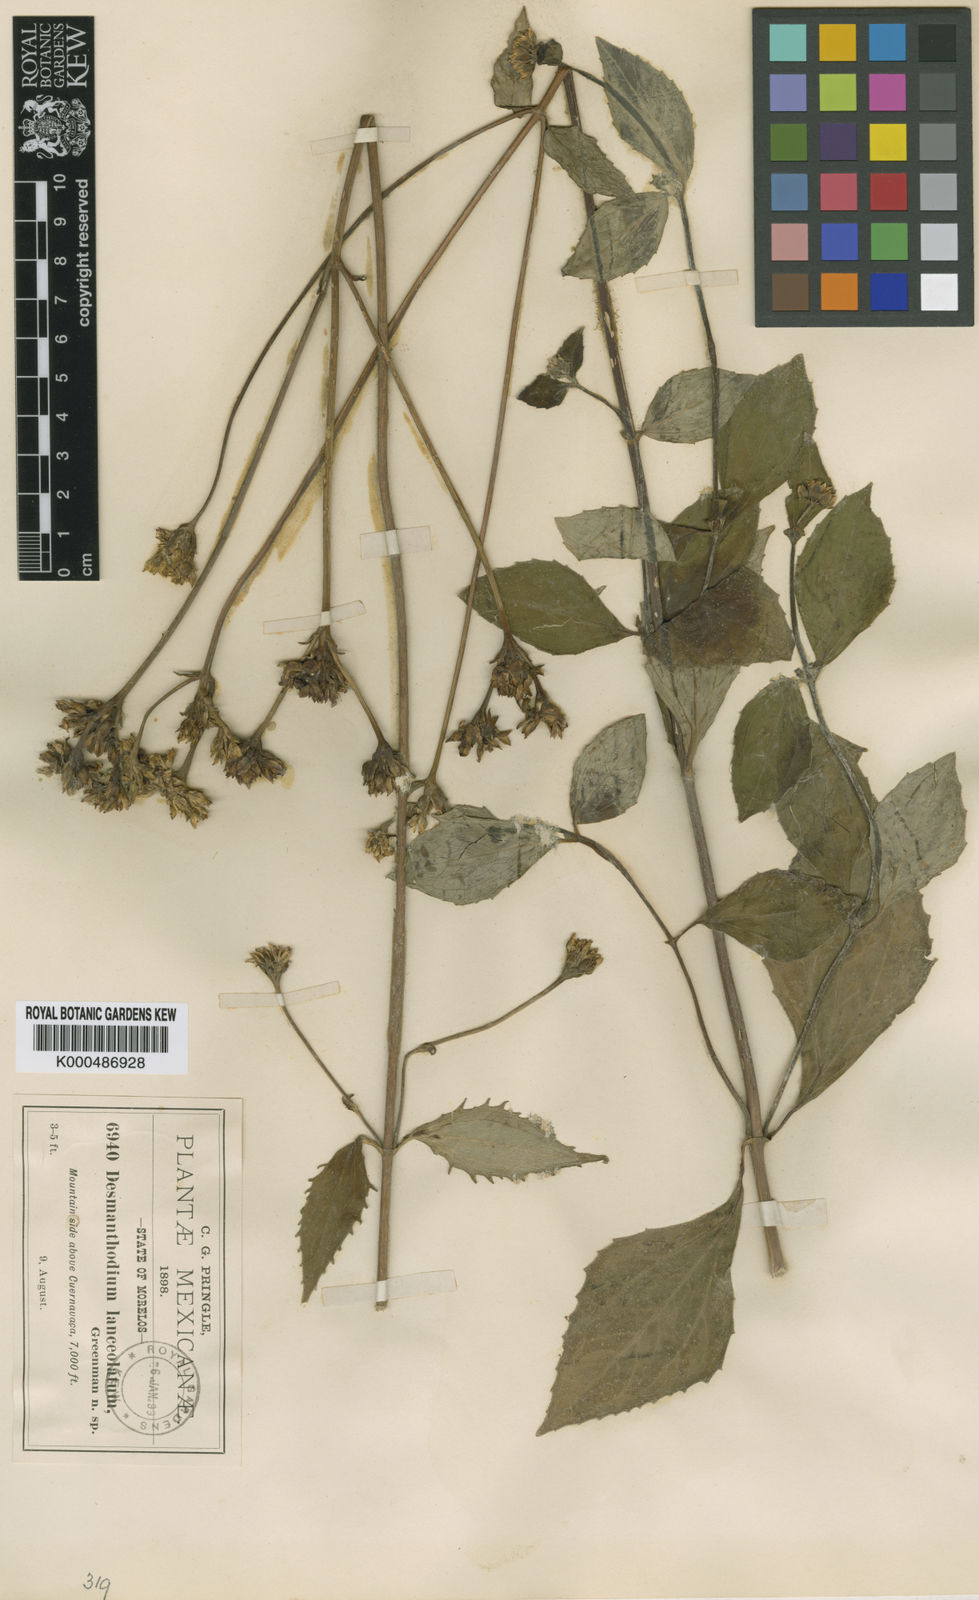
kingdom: Plantae
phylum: Tracheophyta
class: Magnoliopsida
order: Asterales
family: Asteraceae
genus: Desmanthodium
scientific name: Desmanthodium lanceolatum
